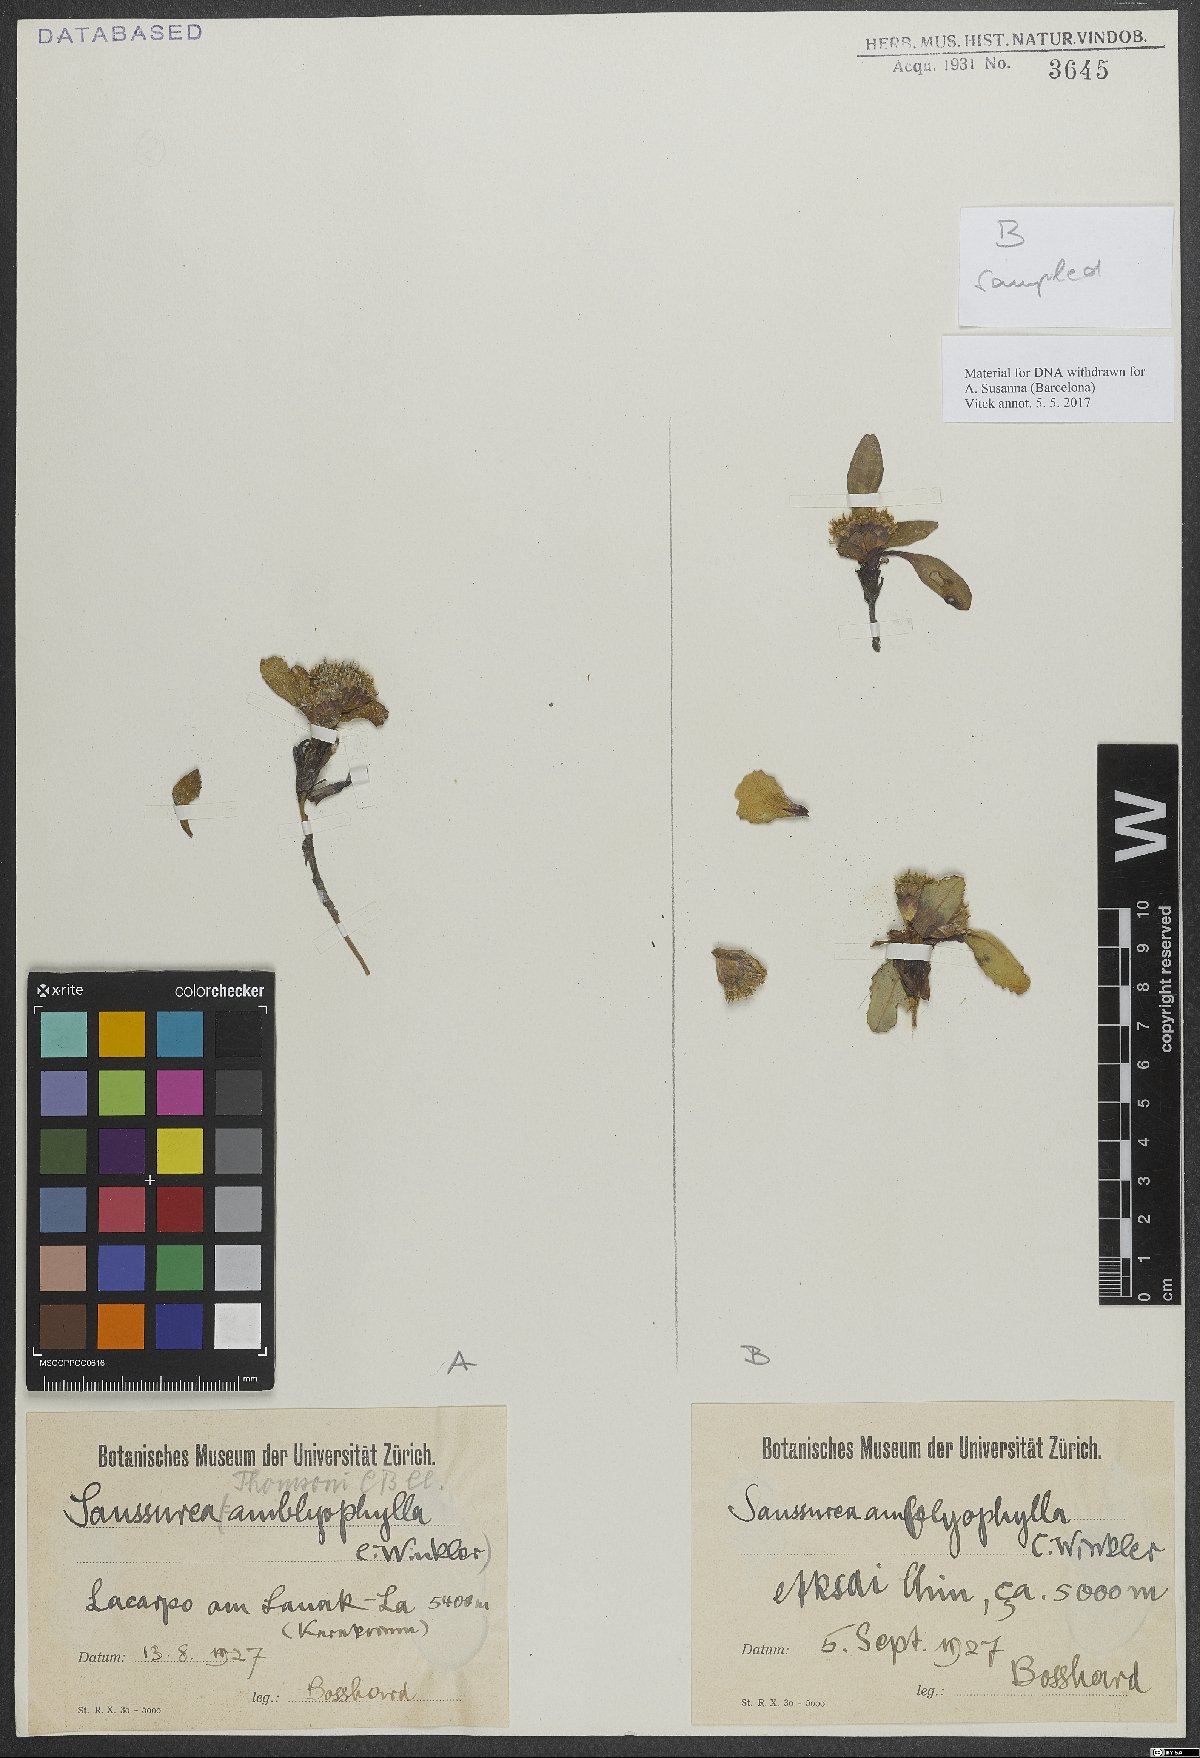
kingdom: Plantae
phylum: Tracheophyta
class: Magnoliopsida
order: Asterales
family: Asteraceae
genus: Saussurea
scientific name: Saussurea thomsonii
